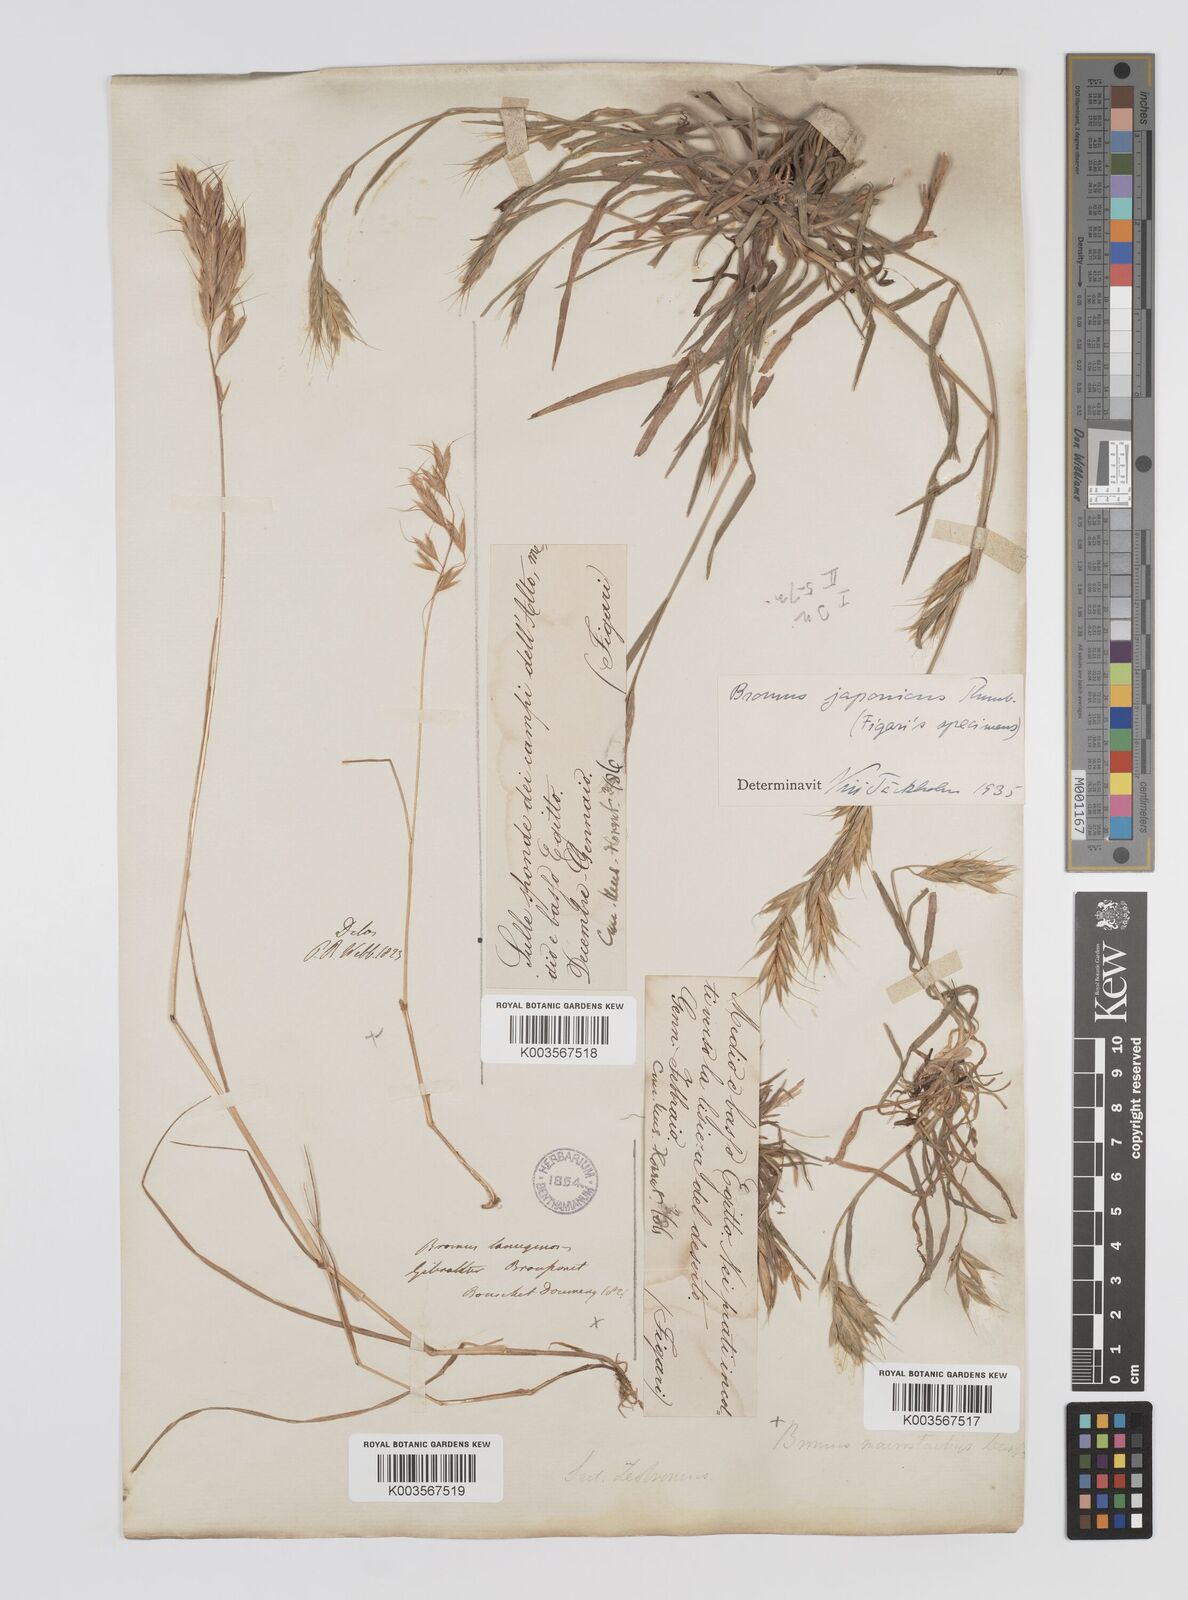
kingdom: Plantae
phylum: Tracheophyta
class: Liliopsida
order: Poales
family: Poaceae
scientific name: Poaceae
